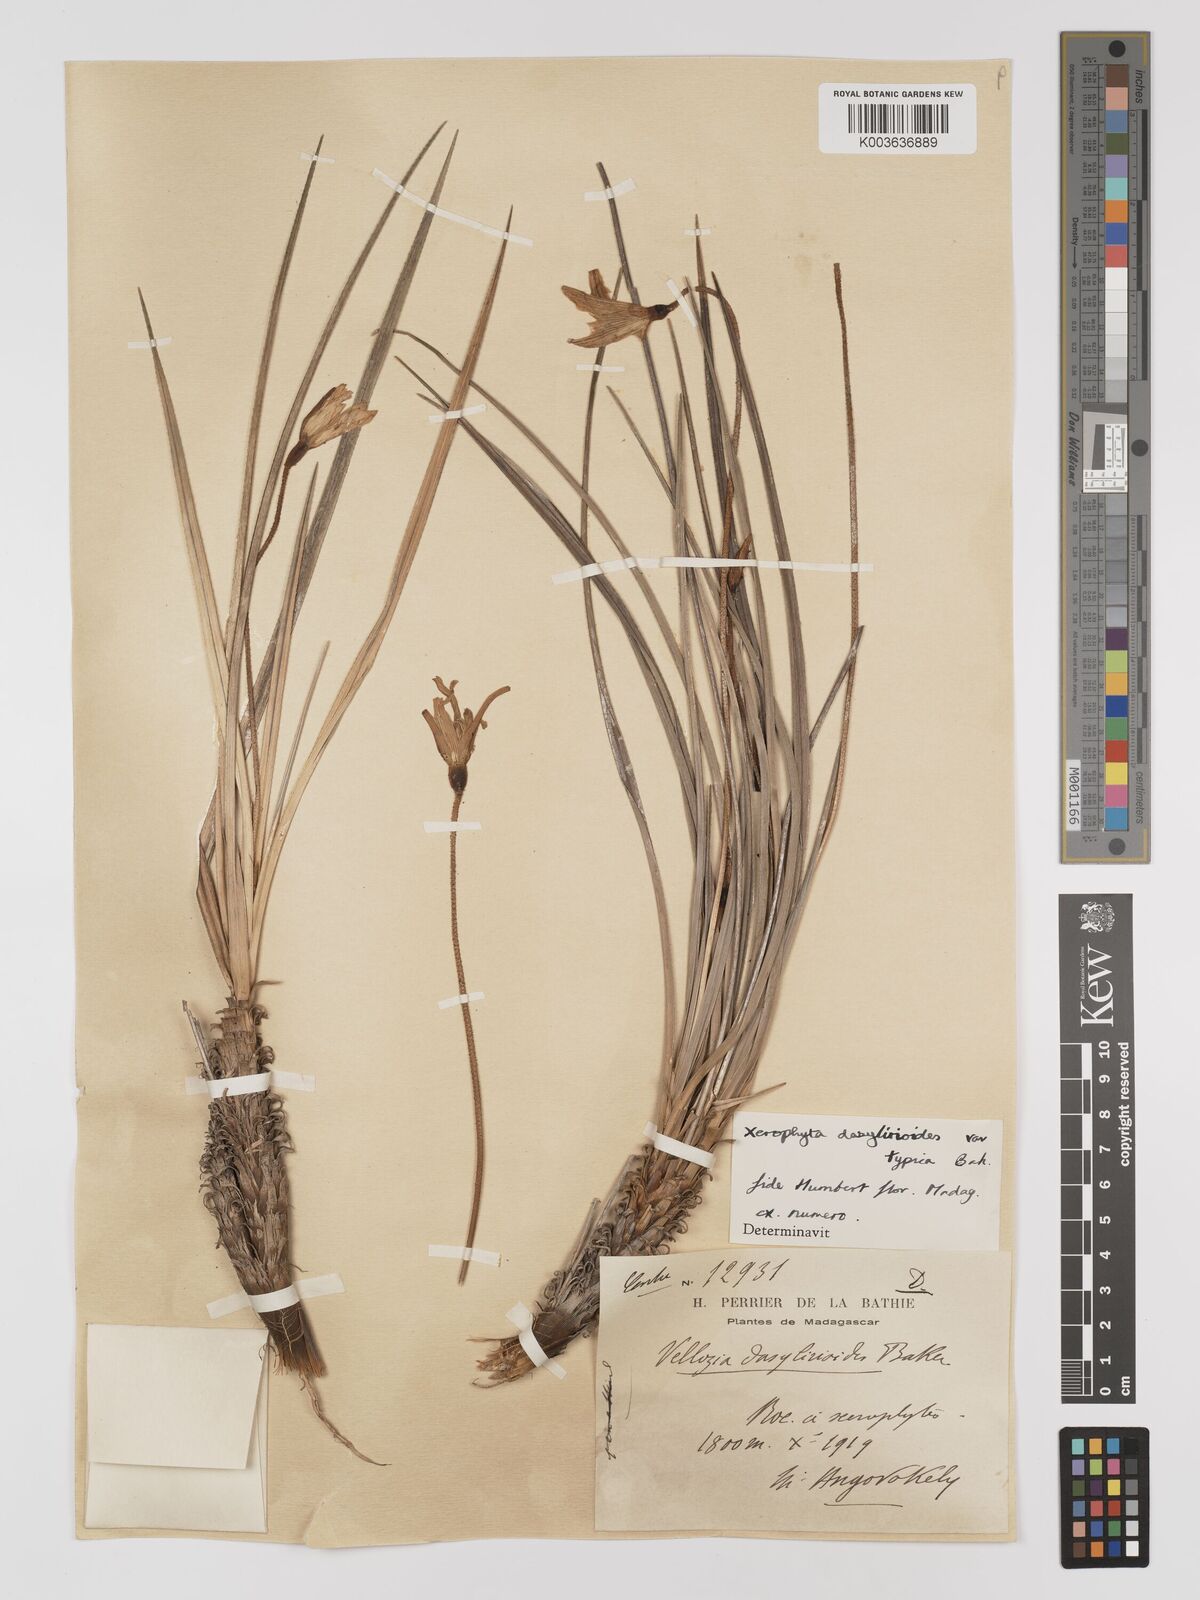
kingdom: Plantae
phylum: Tracheophyta
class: Liliopsida
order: Pandanales
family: Velloziaceae
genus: Xerophyta
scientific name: Xerophyta dasylirioides
